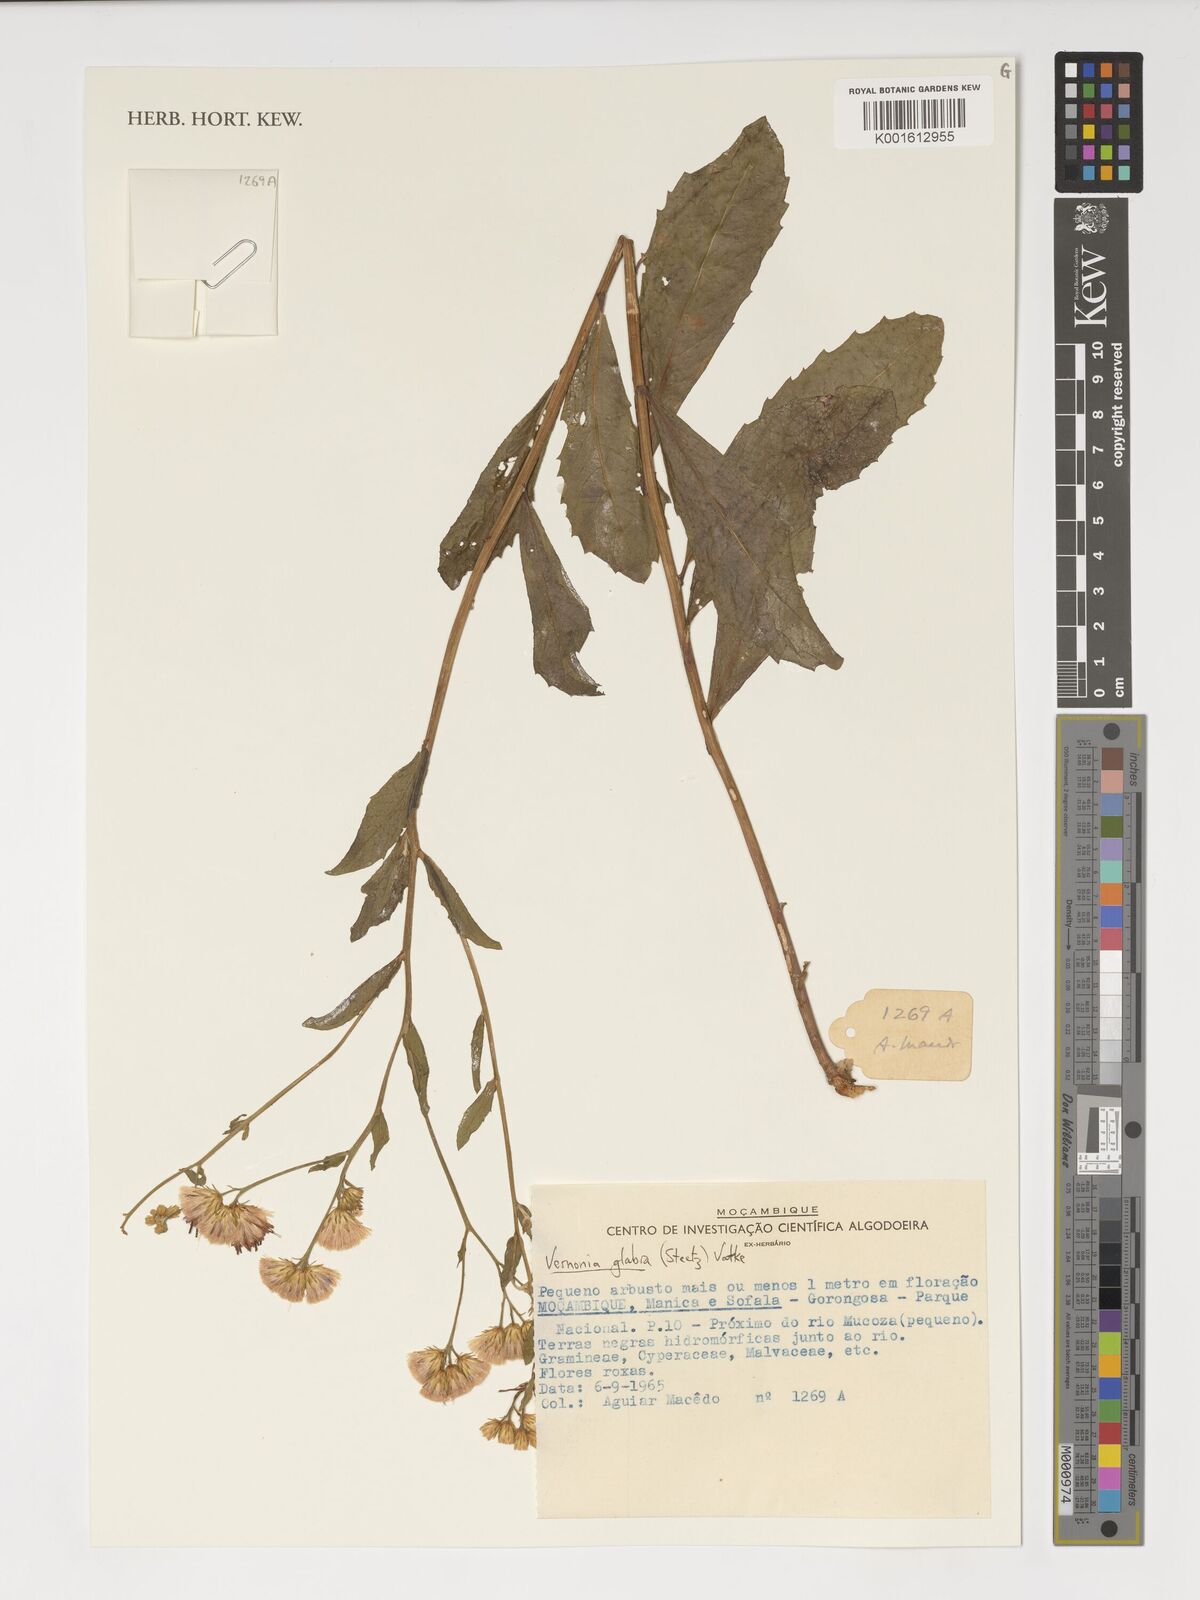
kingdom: Plantae
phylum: Tracheophyta
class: Magnoliopsida
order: Asterales
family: Asteraceae
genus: Linzia
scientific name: Linzia glabra
